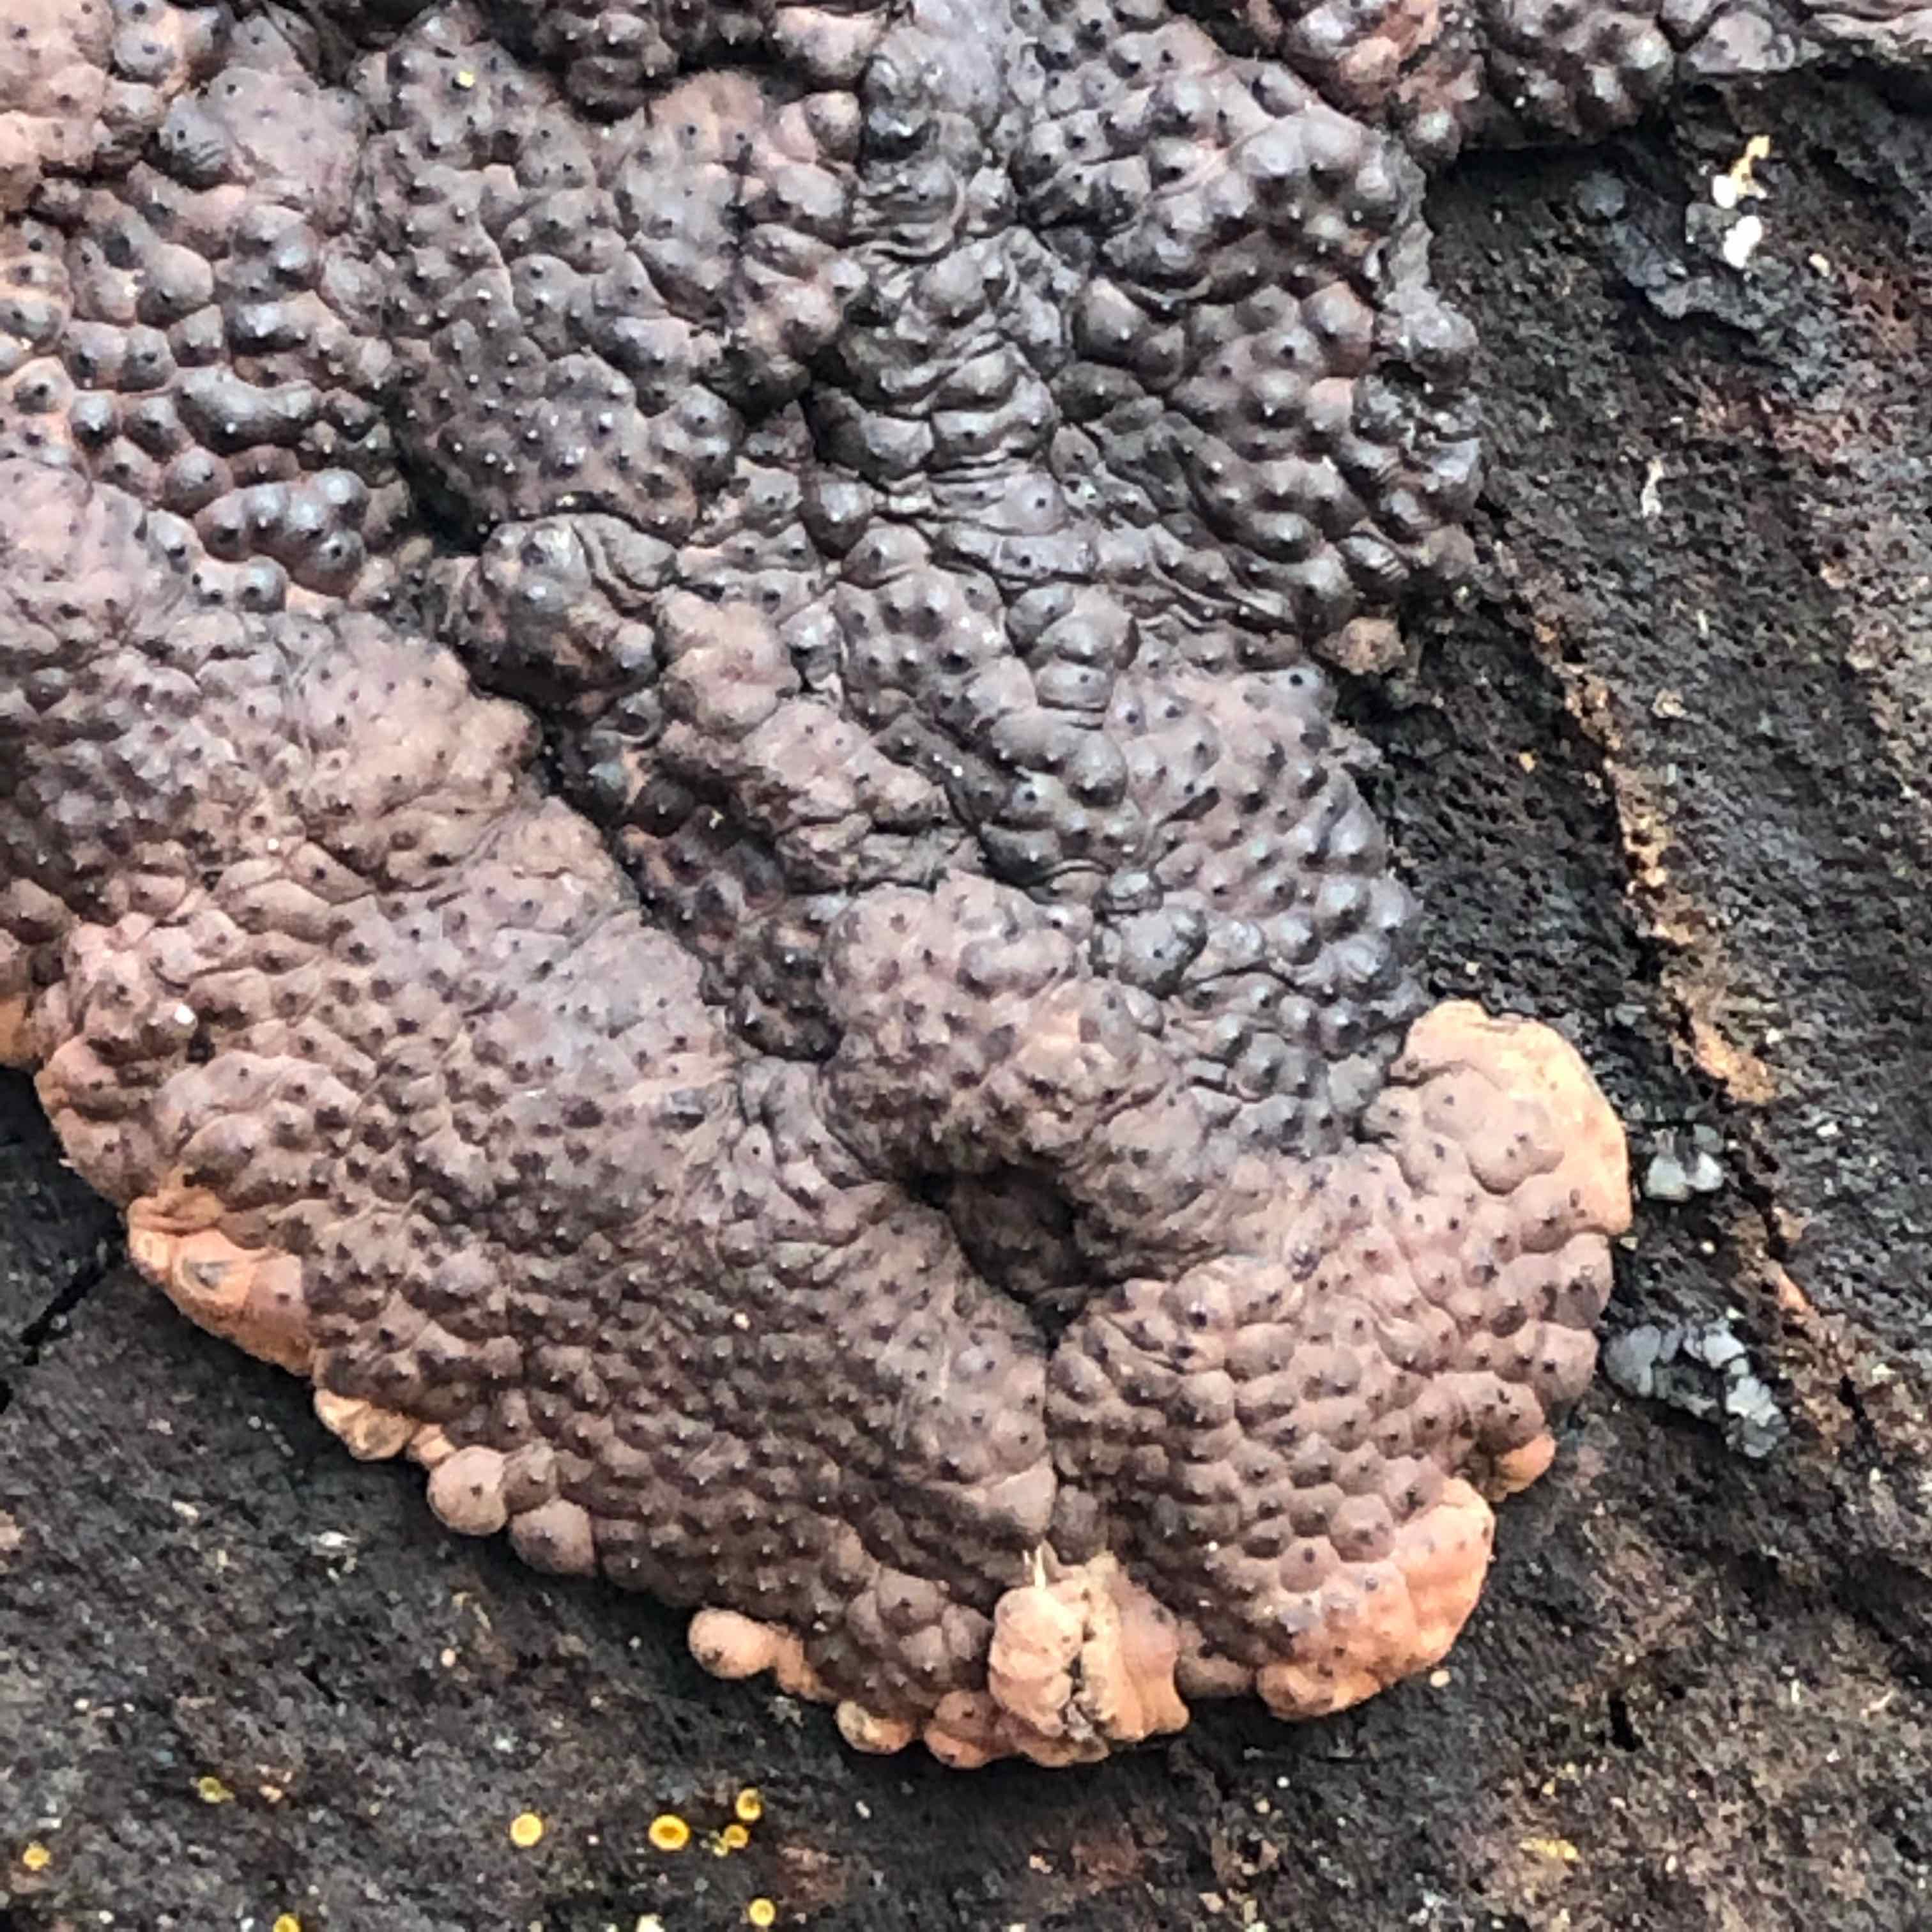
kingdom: Fungi
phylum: Ascomycota
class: Sordariomycetes
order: Xylariales
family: Hypoxylaceae
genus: Jackrogersella
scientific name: Jackrogersella multiformis
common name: foranderlig kulbær
